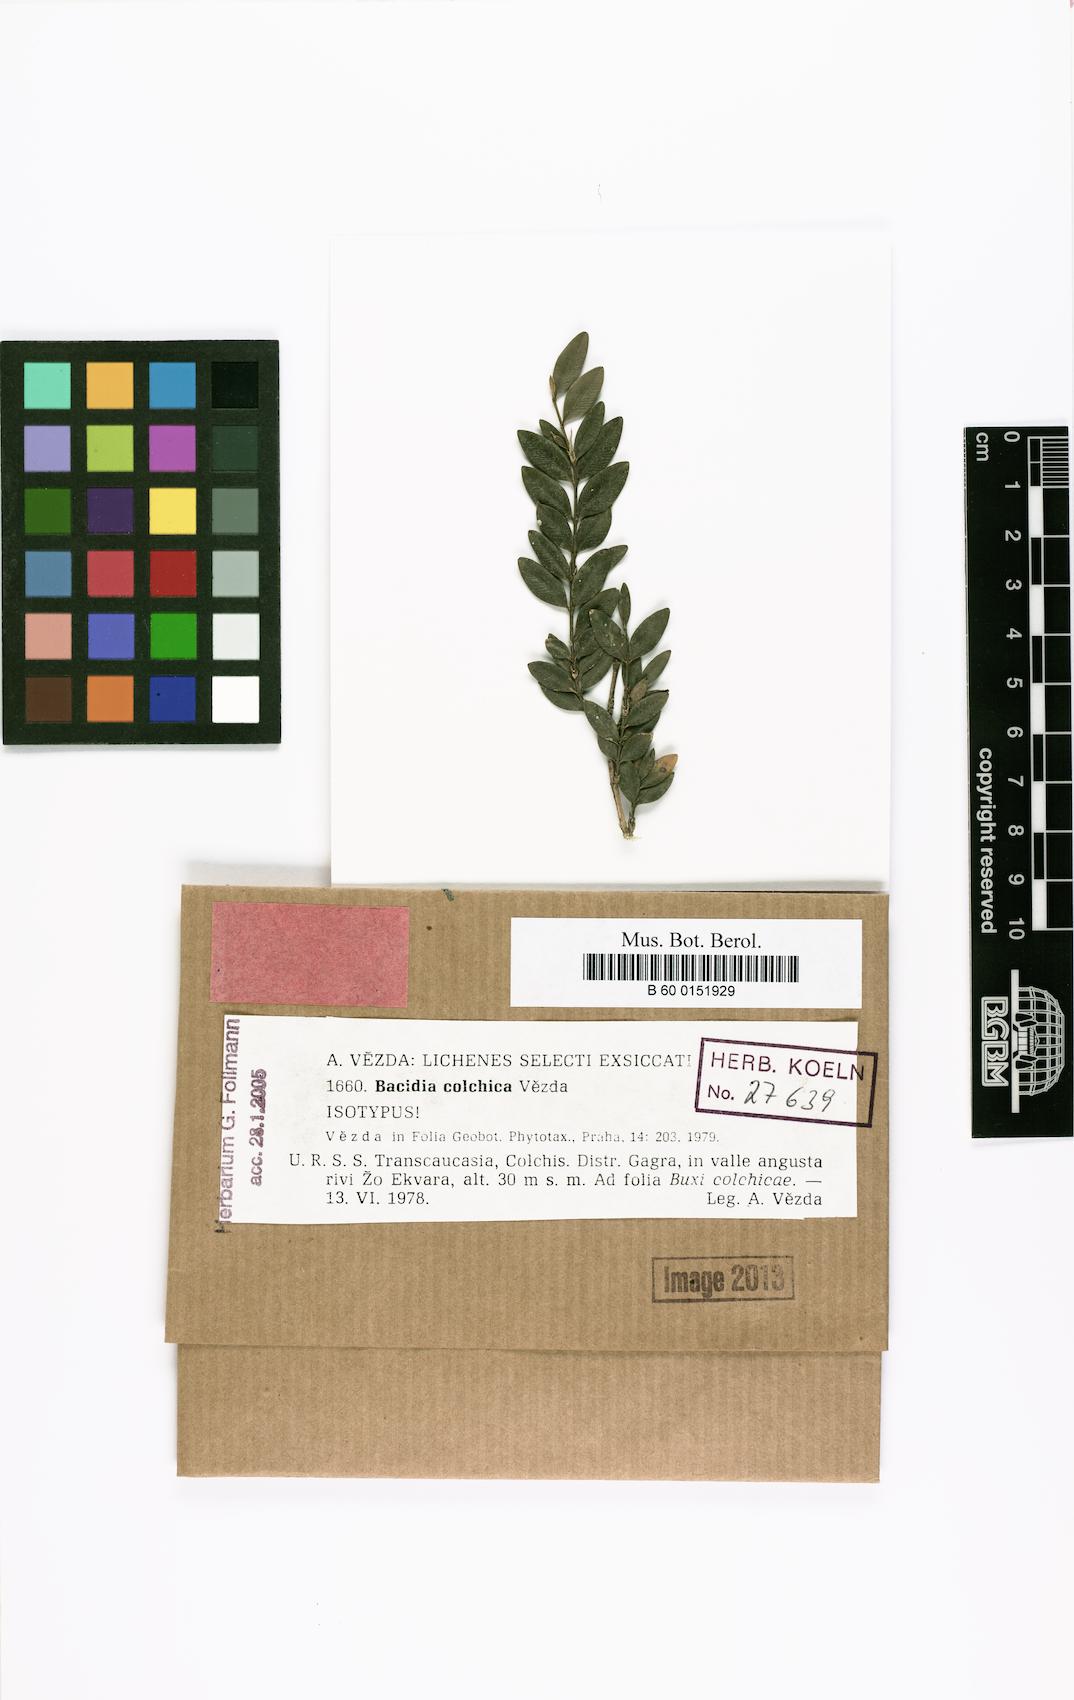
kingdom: Fungi
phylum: Ascomycota
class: Lecanoromycetes
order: Lecanorales
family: Byssolomataceae
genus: Fellhanera
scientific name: Fellhanera colchica
